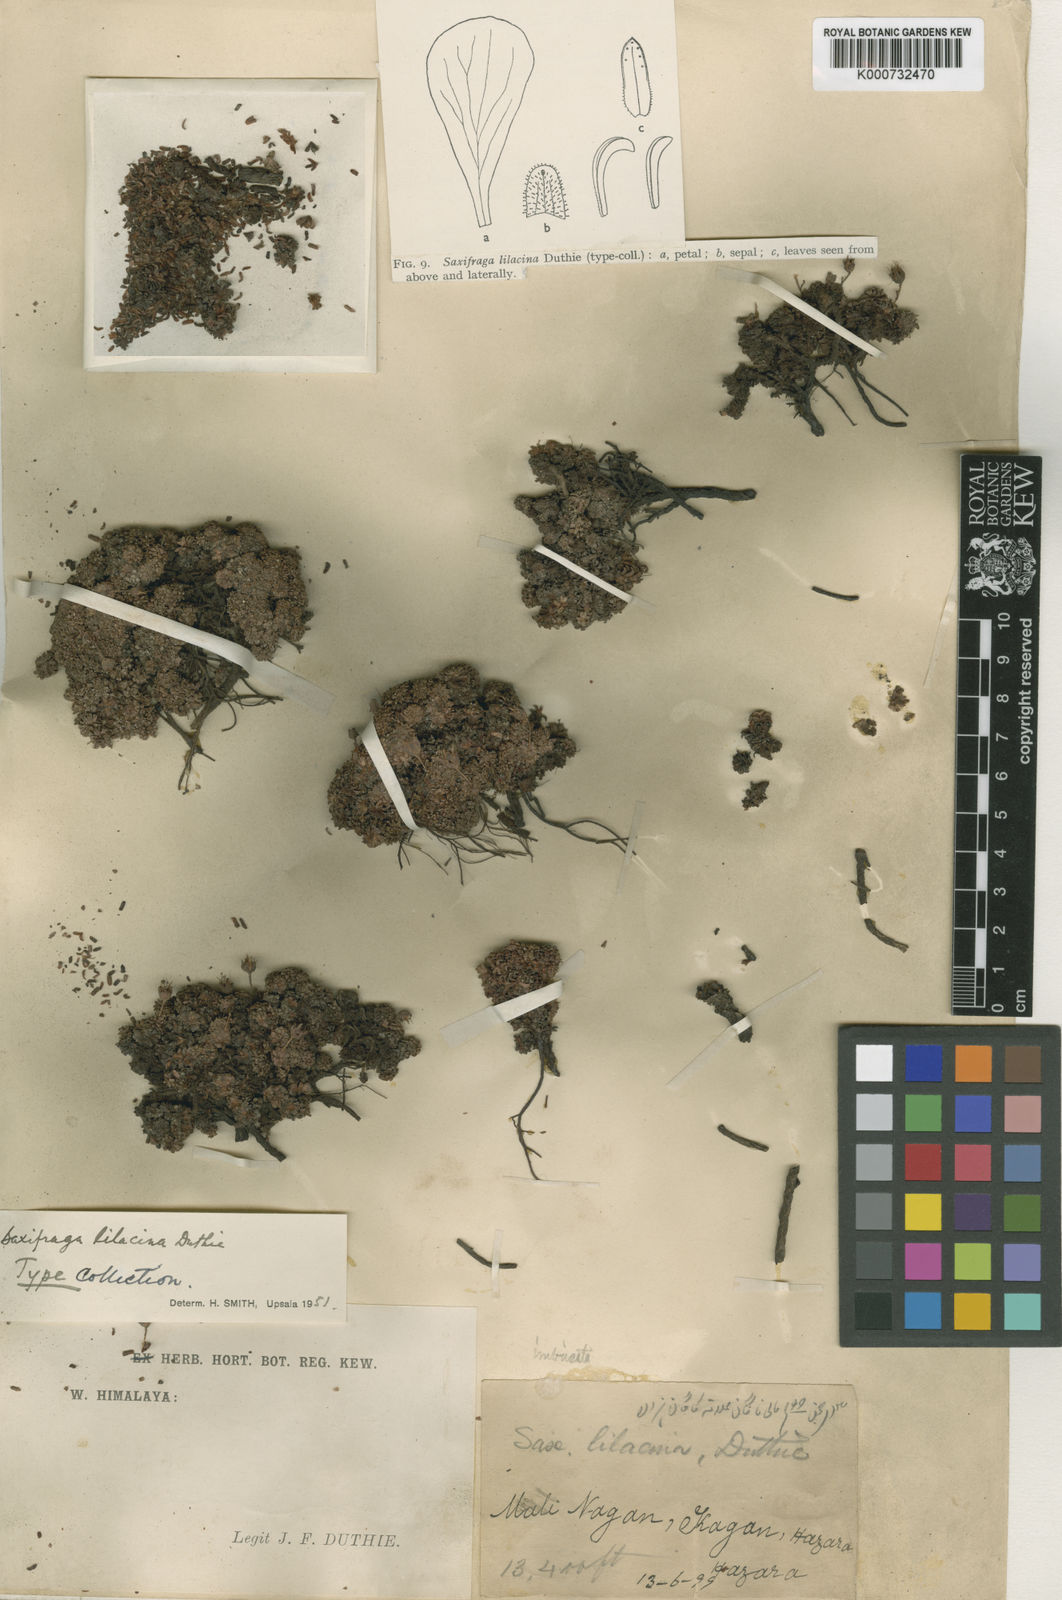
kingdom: Plantae
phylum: Tracheophyta
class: Magnoliopsida
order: Saxifragales
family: Saxifragaceae
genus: Saxifraga
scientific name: Saxifraga lilacina
